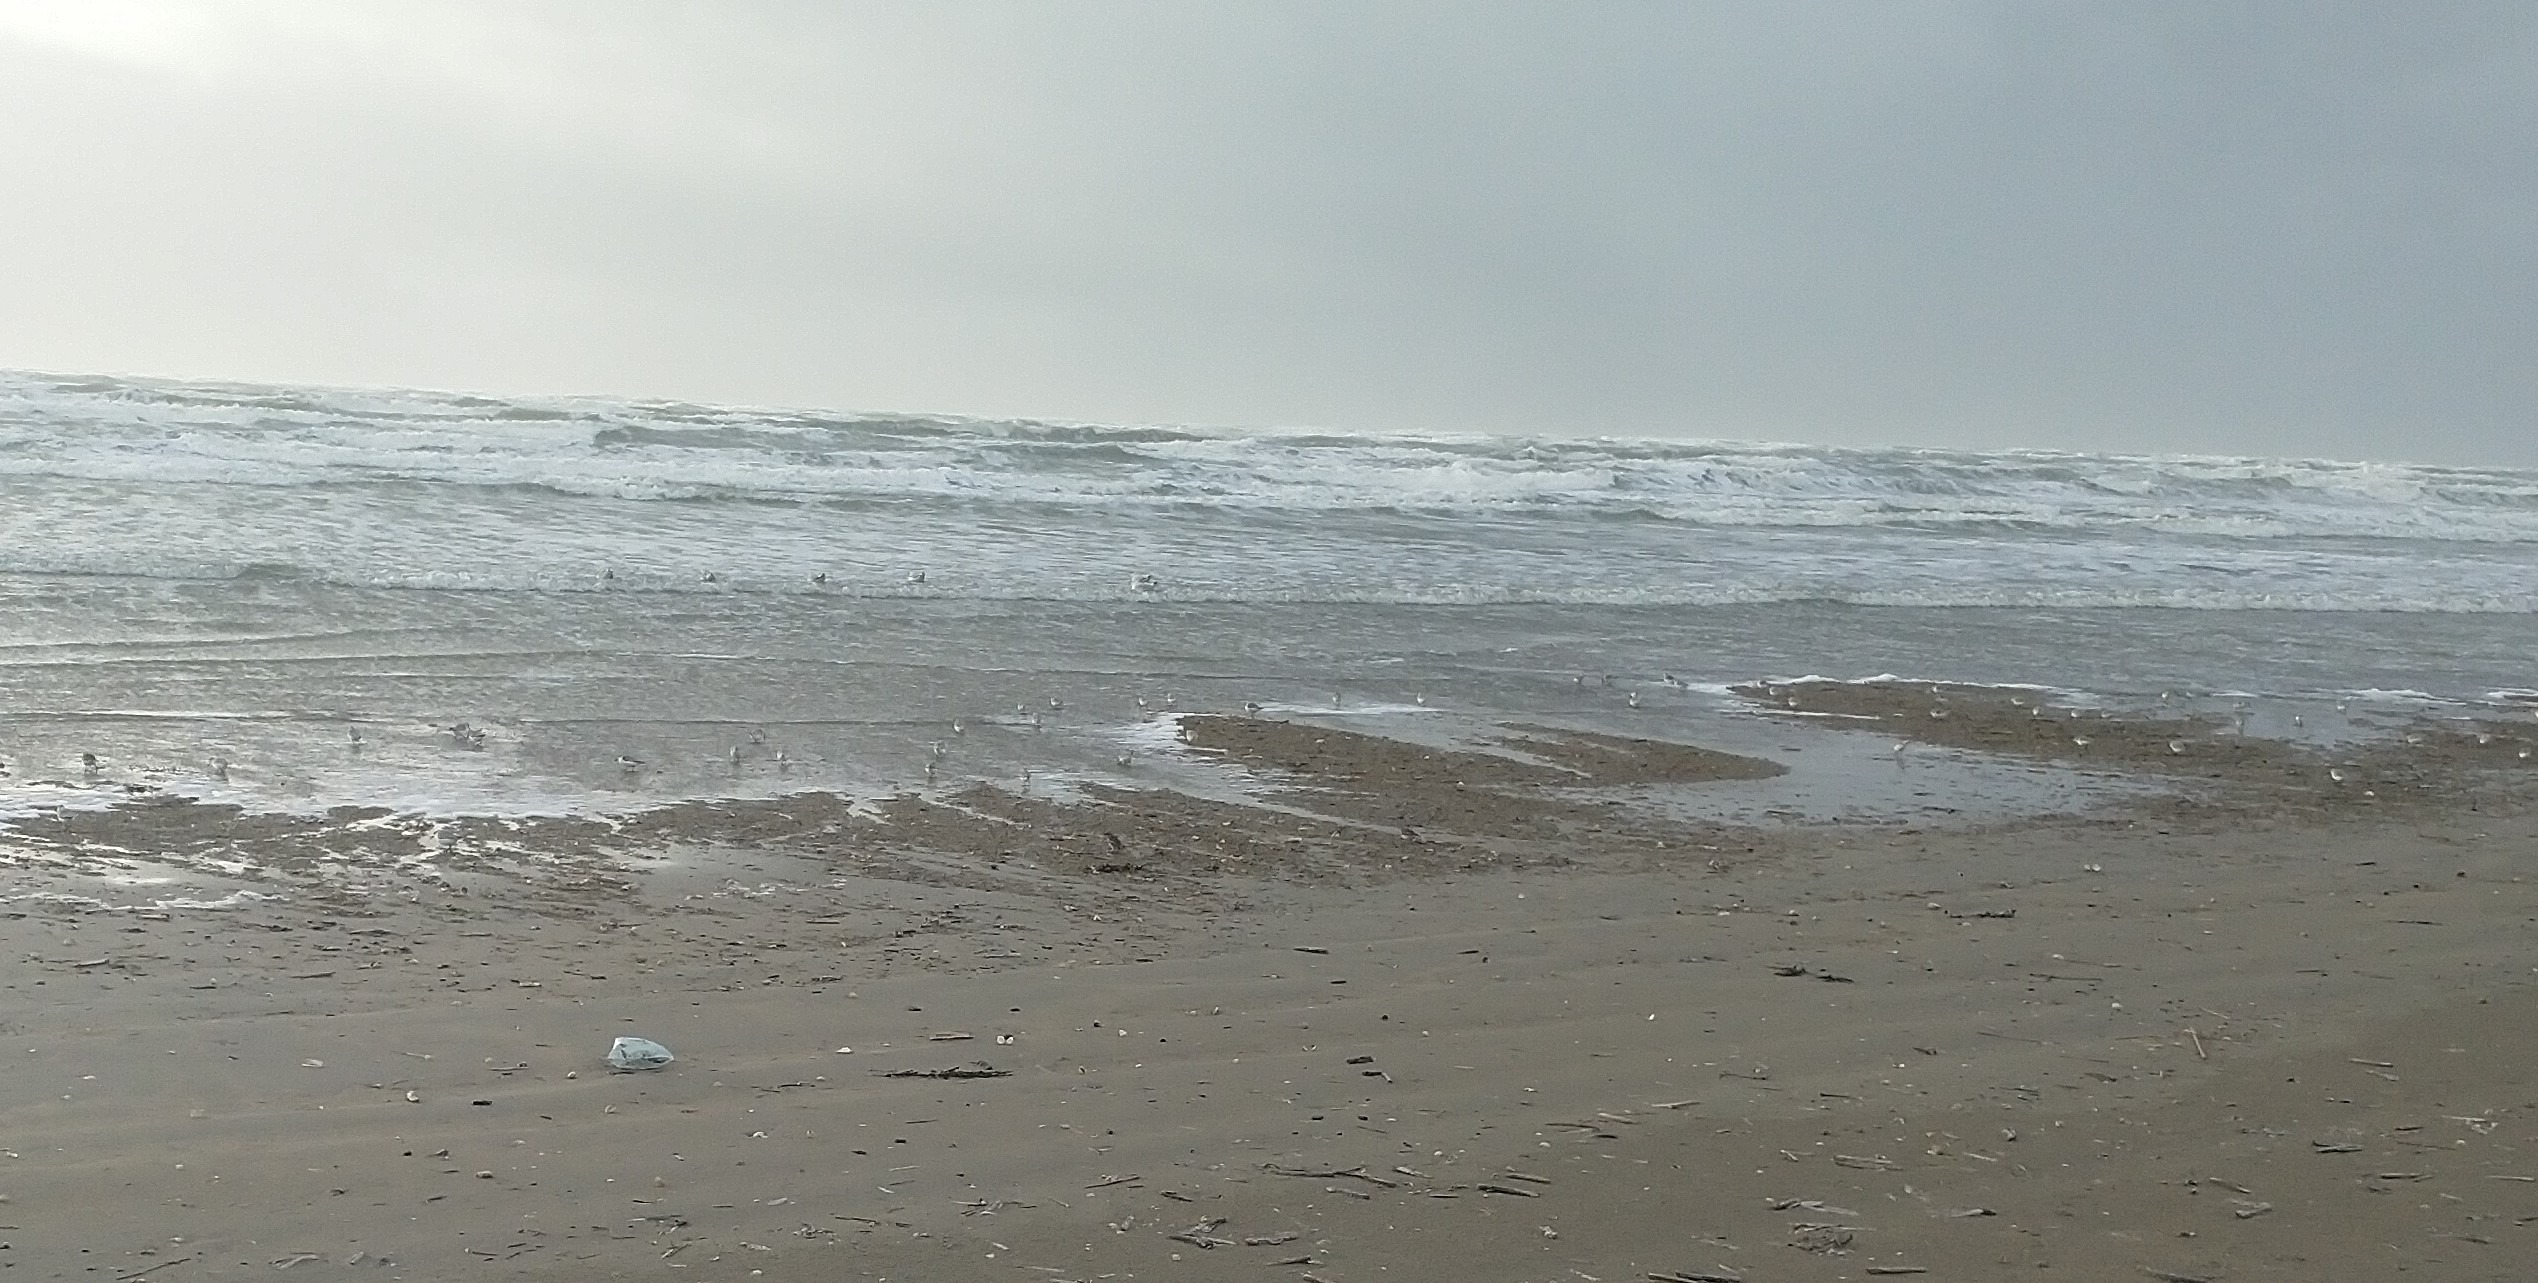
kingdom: Animalia
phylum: Chordata
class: Aves
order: Charadriiformes
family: Scolopacidae
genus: Calidris
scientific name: Calidris alba
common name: Sandløber
